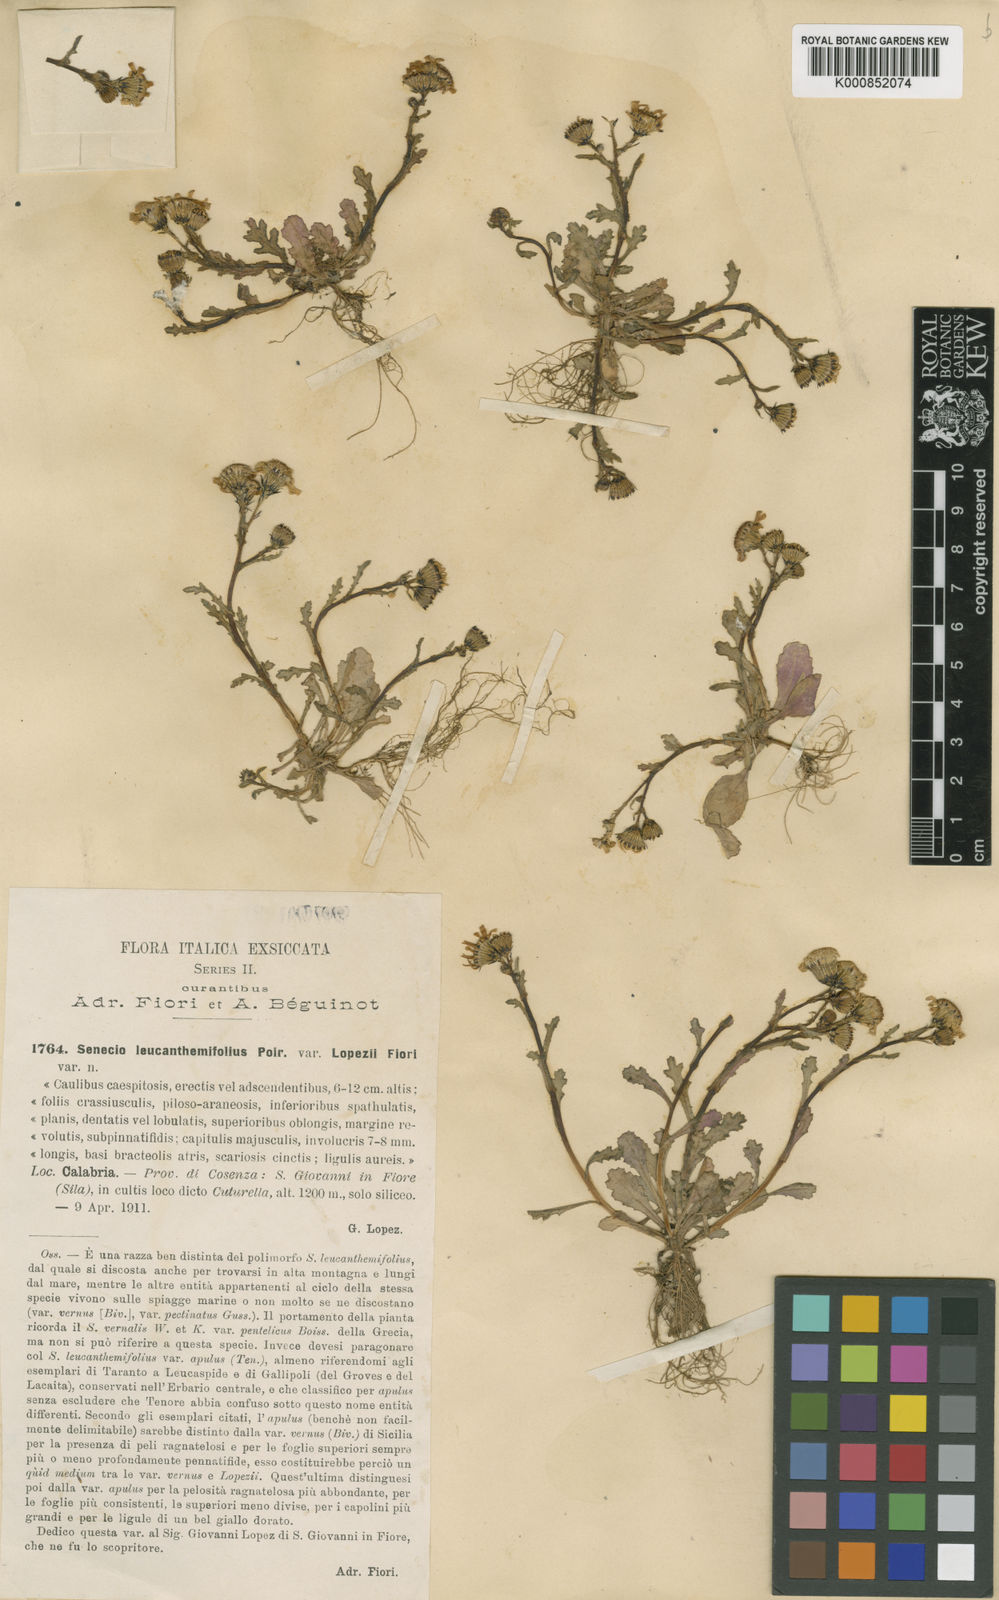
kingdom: Plantae
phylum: Tracheophyta
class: Magnoliopsida
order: Asterales
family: Asteraceae
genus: Senecio
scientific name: Senecio leucanthemifolius
